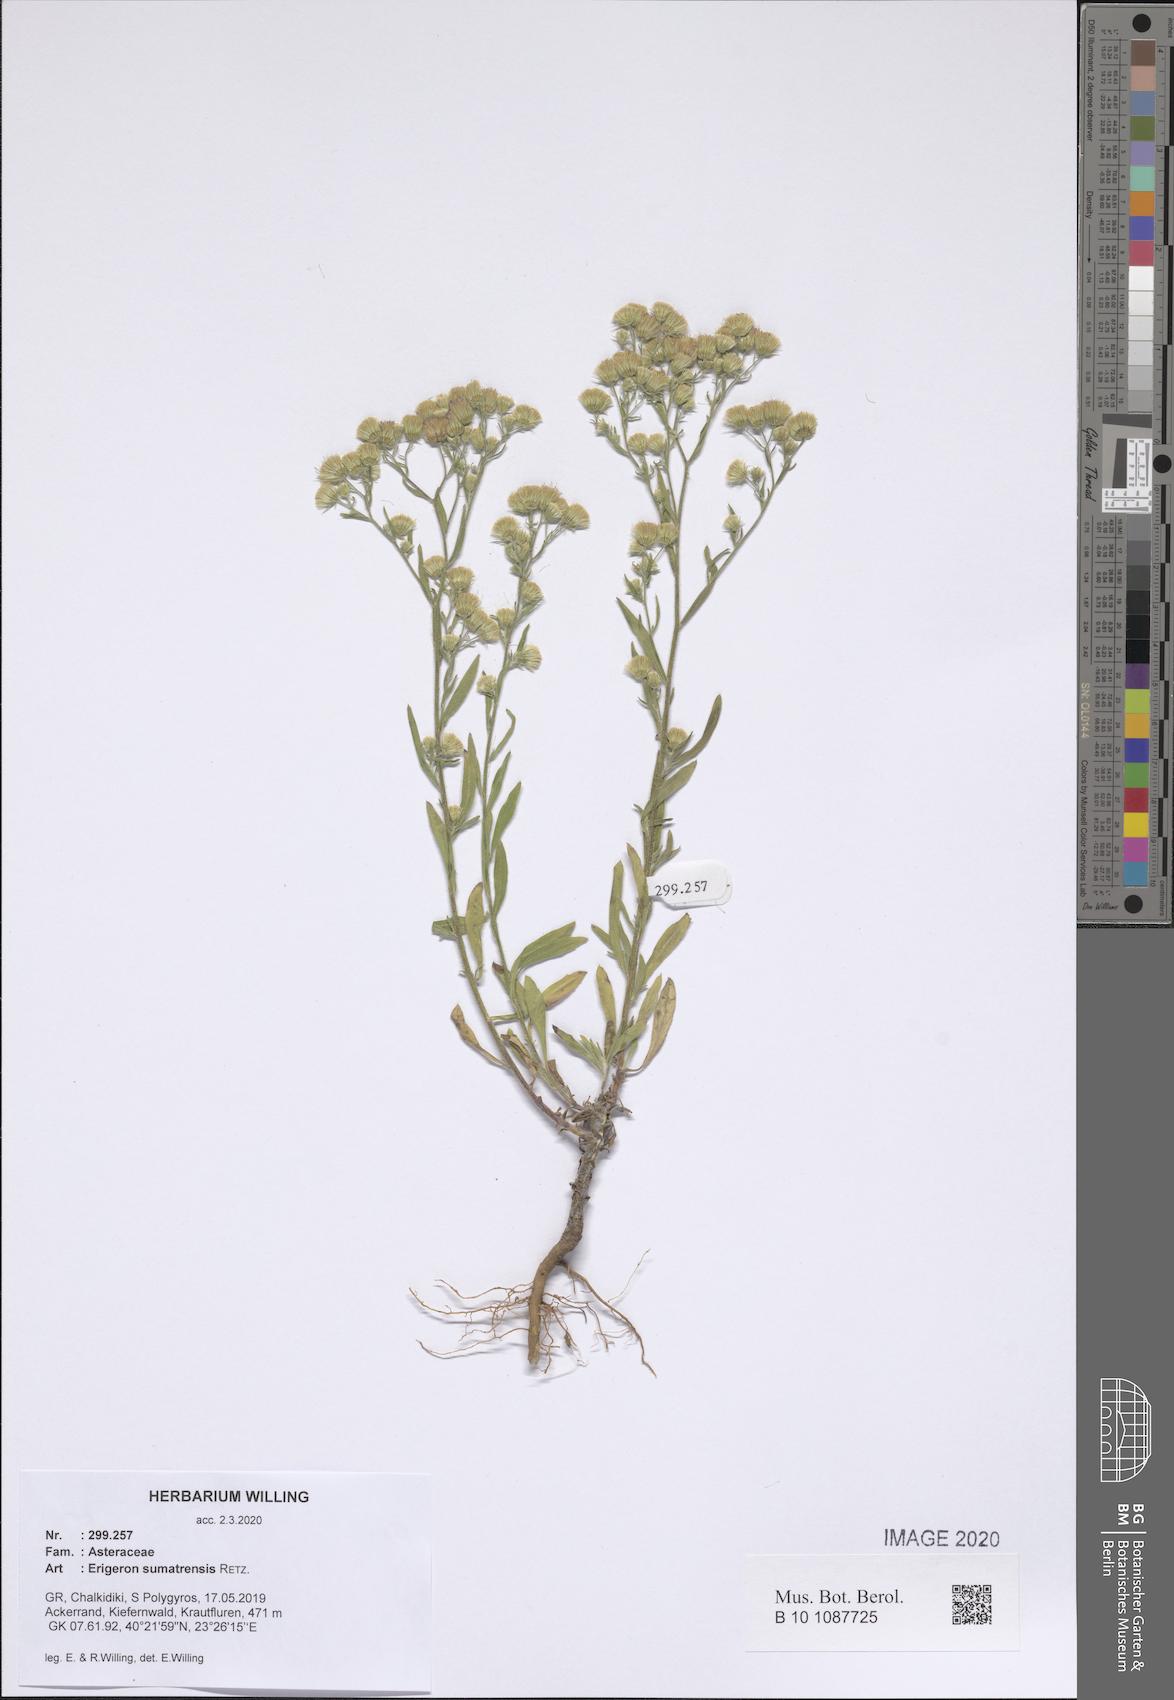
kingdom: Plantae
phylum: Tracheophyta
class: Magnoliopsida
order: Asterales
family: Asteraceae
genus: Erigeron
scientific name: Erigeron sumatrensis
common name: Daisy
